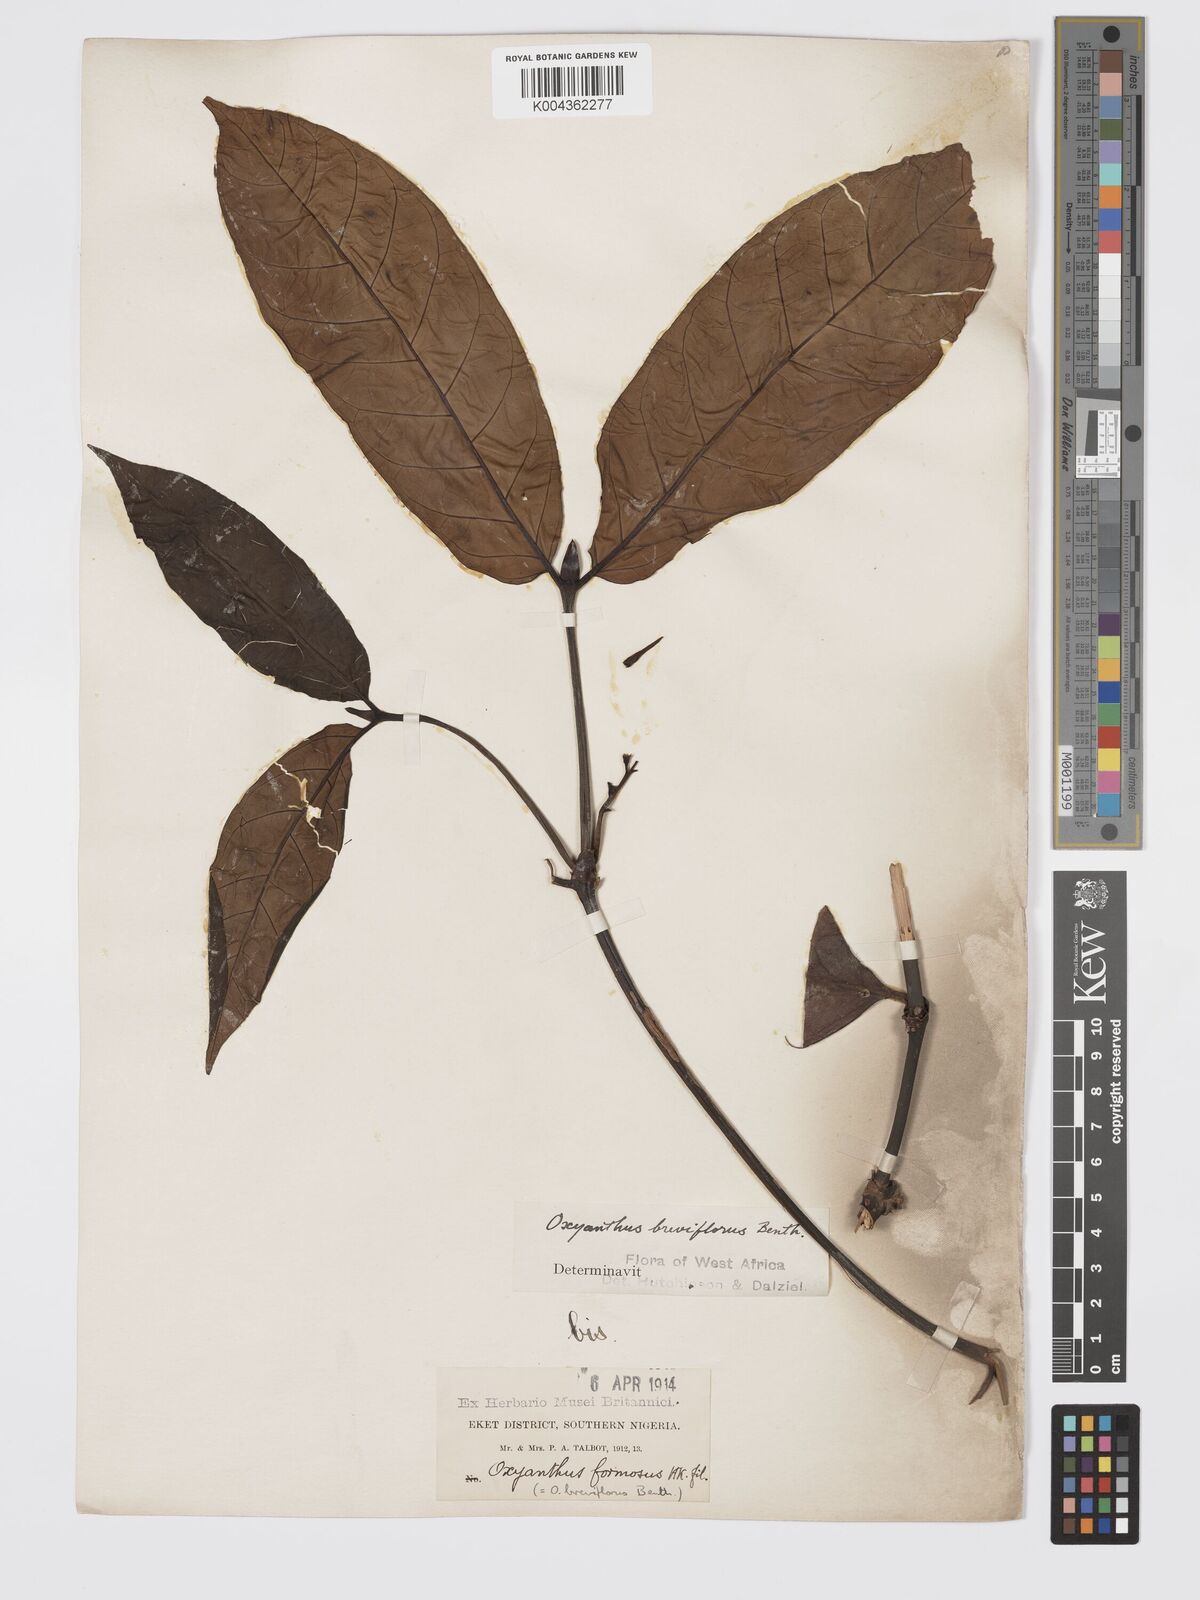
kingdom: Plantae
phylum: Tracheophyta
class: Magnoliopsida
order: Gentianales
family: Rubiaceae
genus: Oxyanthus
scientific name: Oxyanthus formosus
